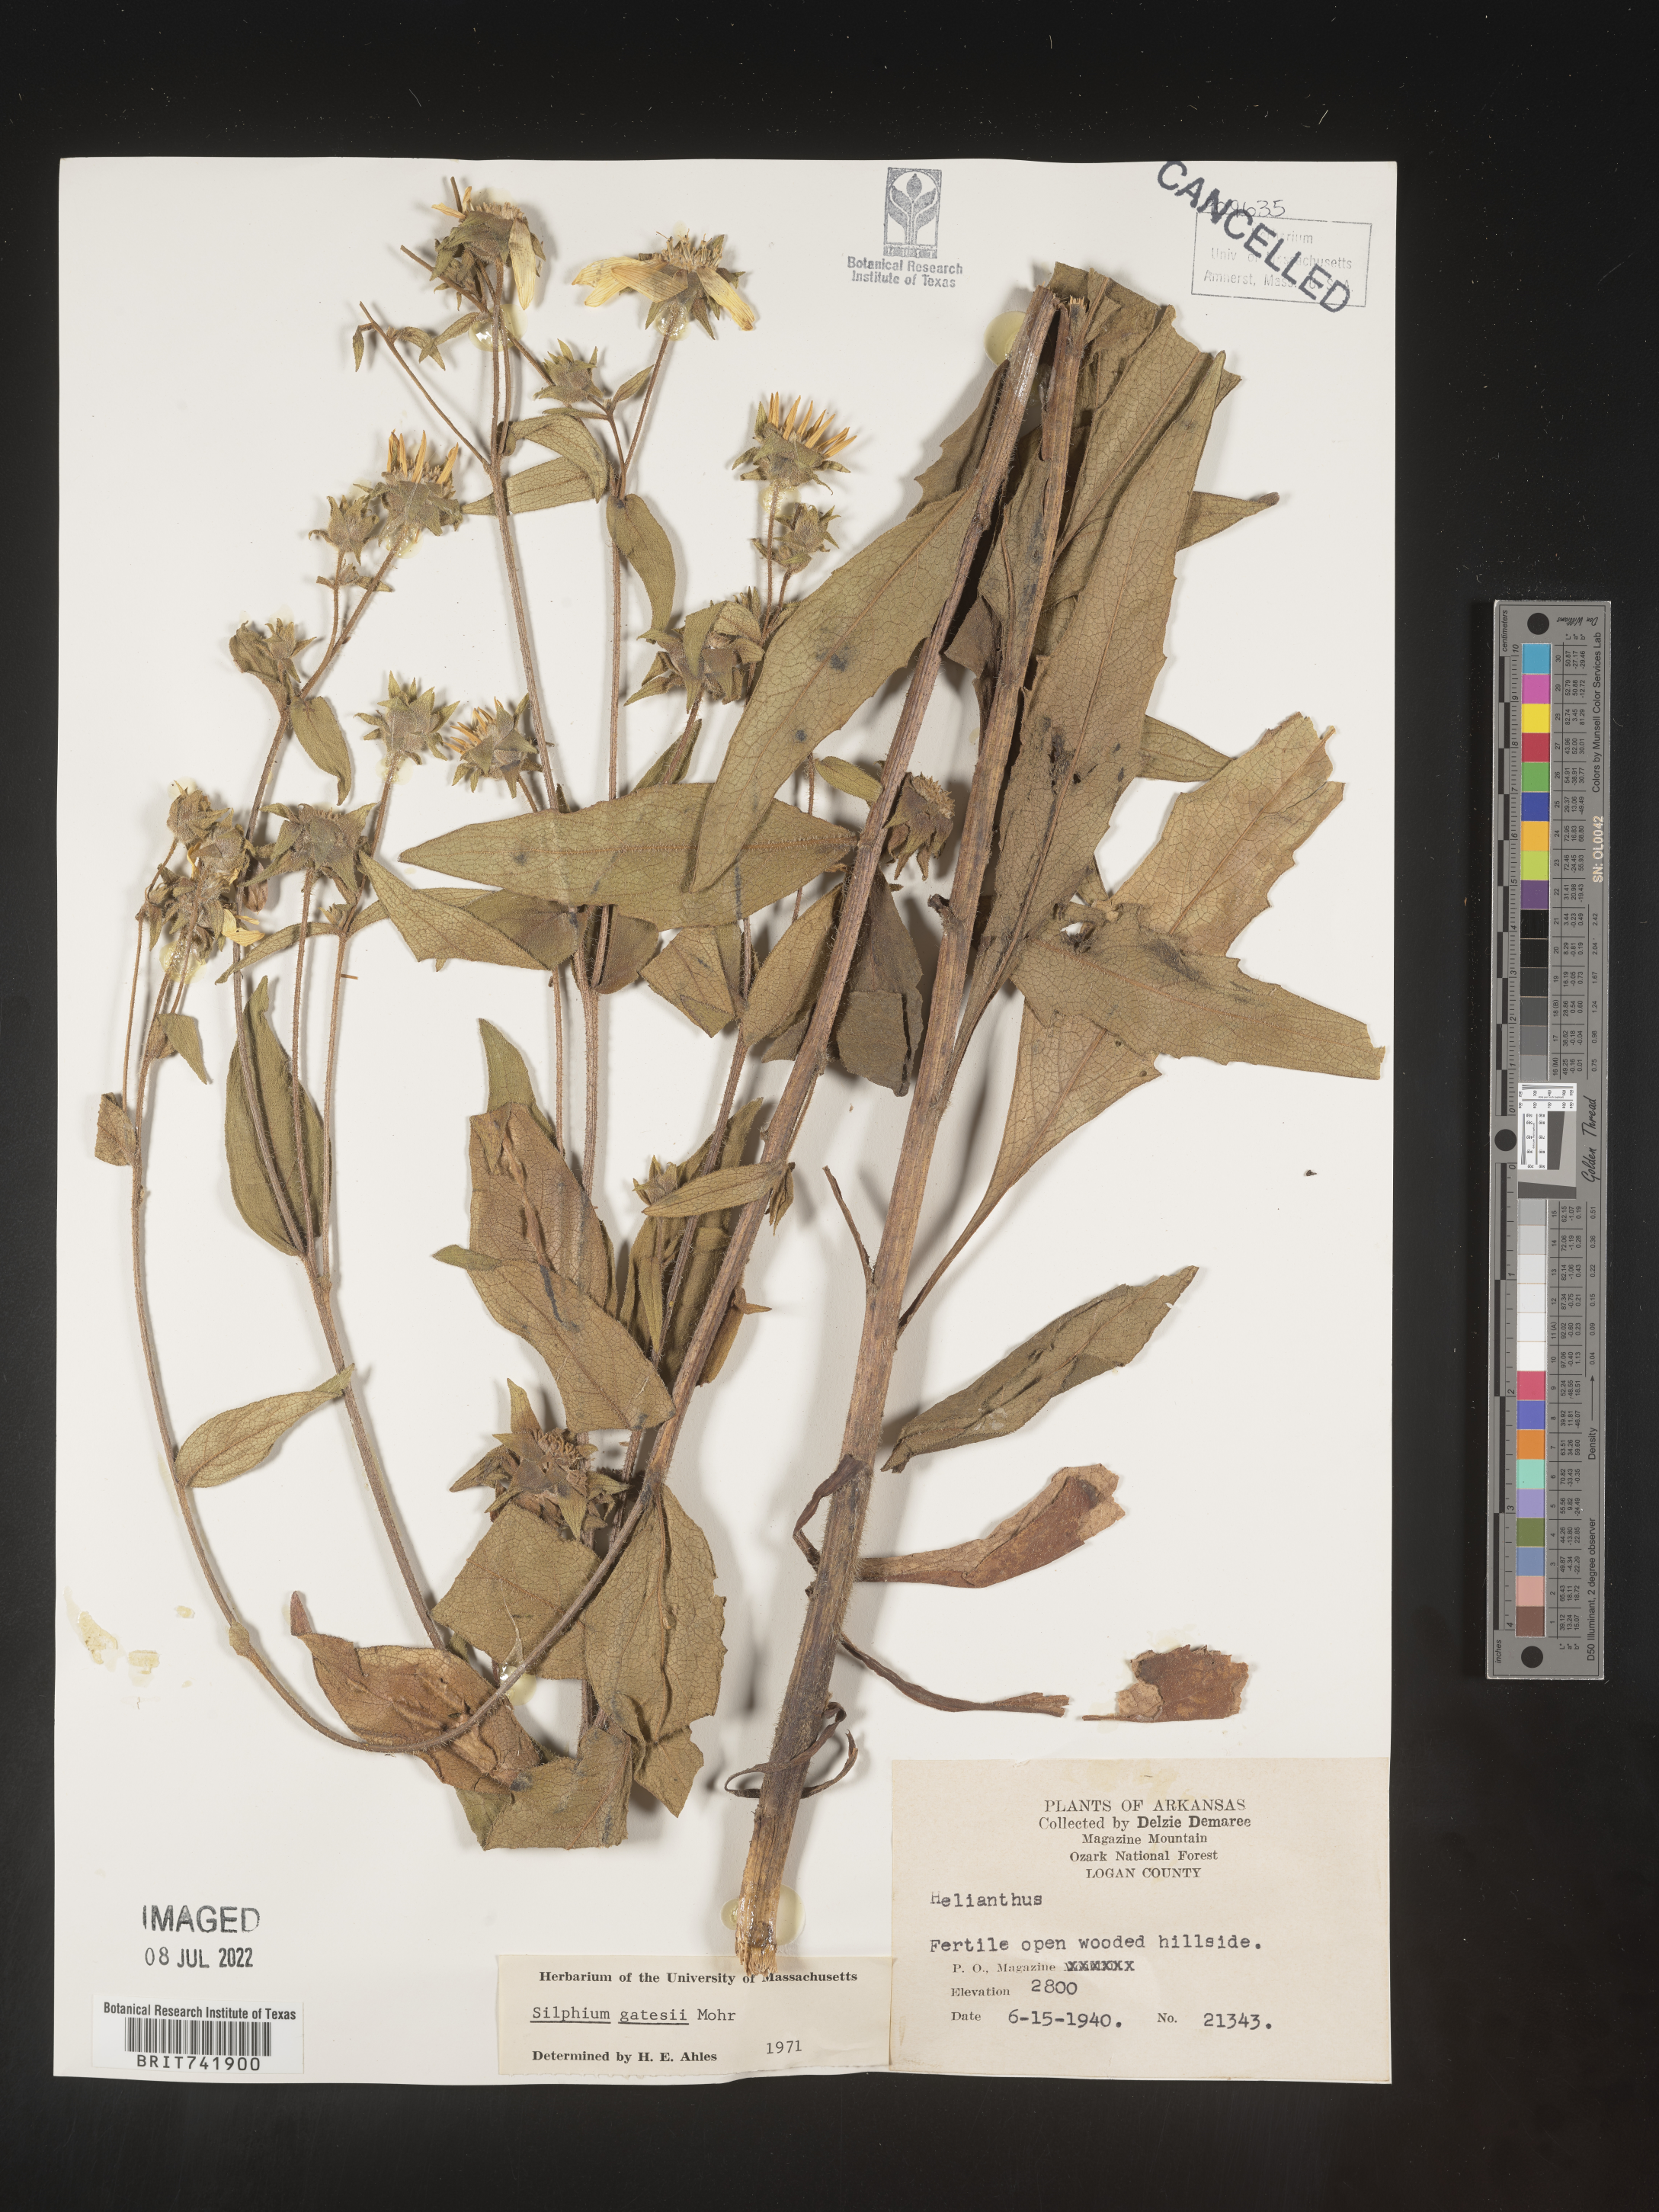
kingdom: Plantae
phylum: Tracheophyta
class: Magnoliopsida
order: Asterales
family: Asteraceae
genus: Silphium
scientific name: Silphium asperrimum
